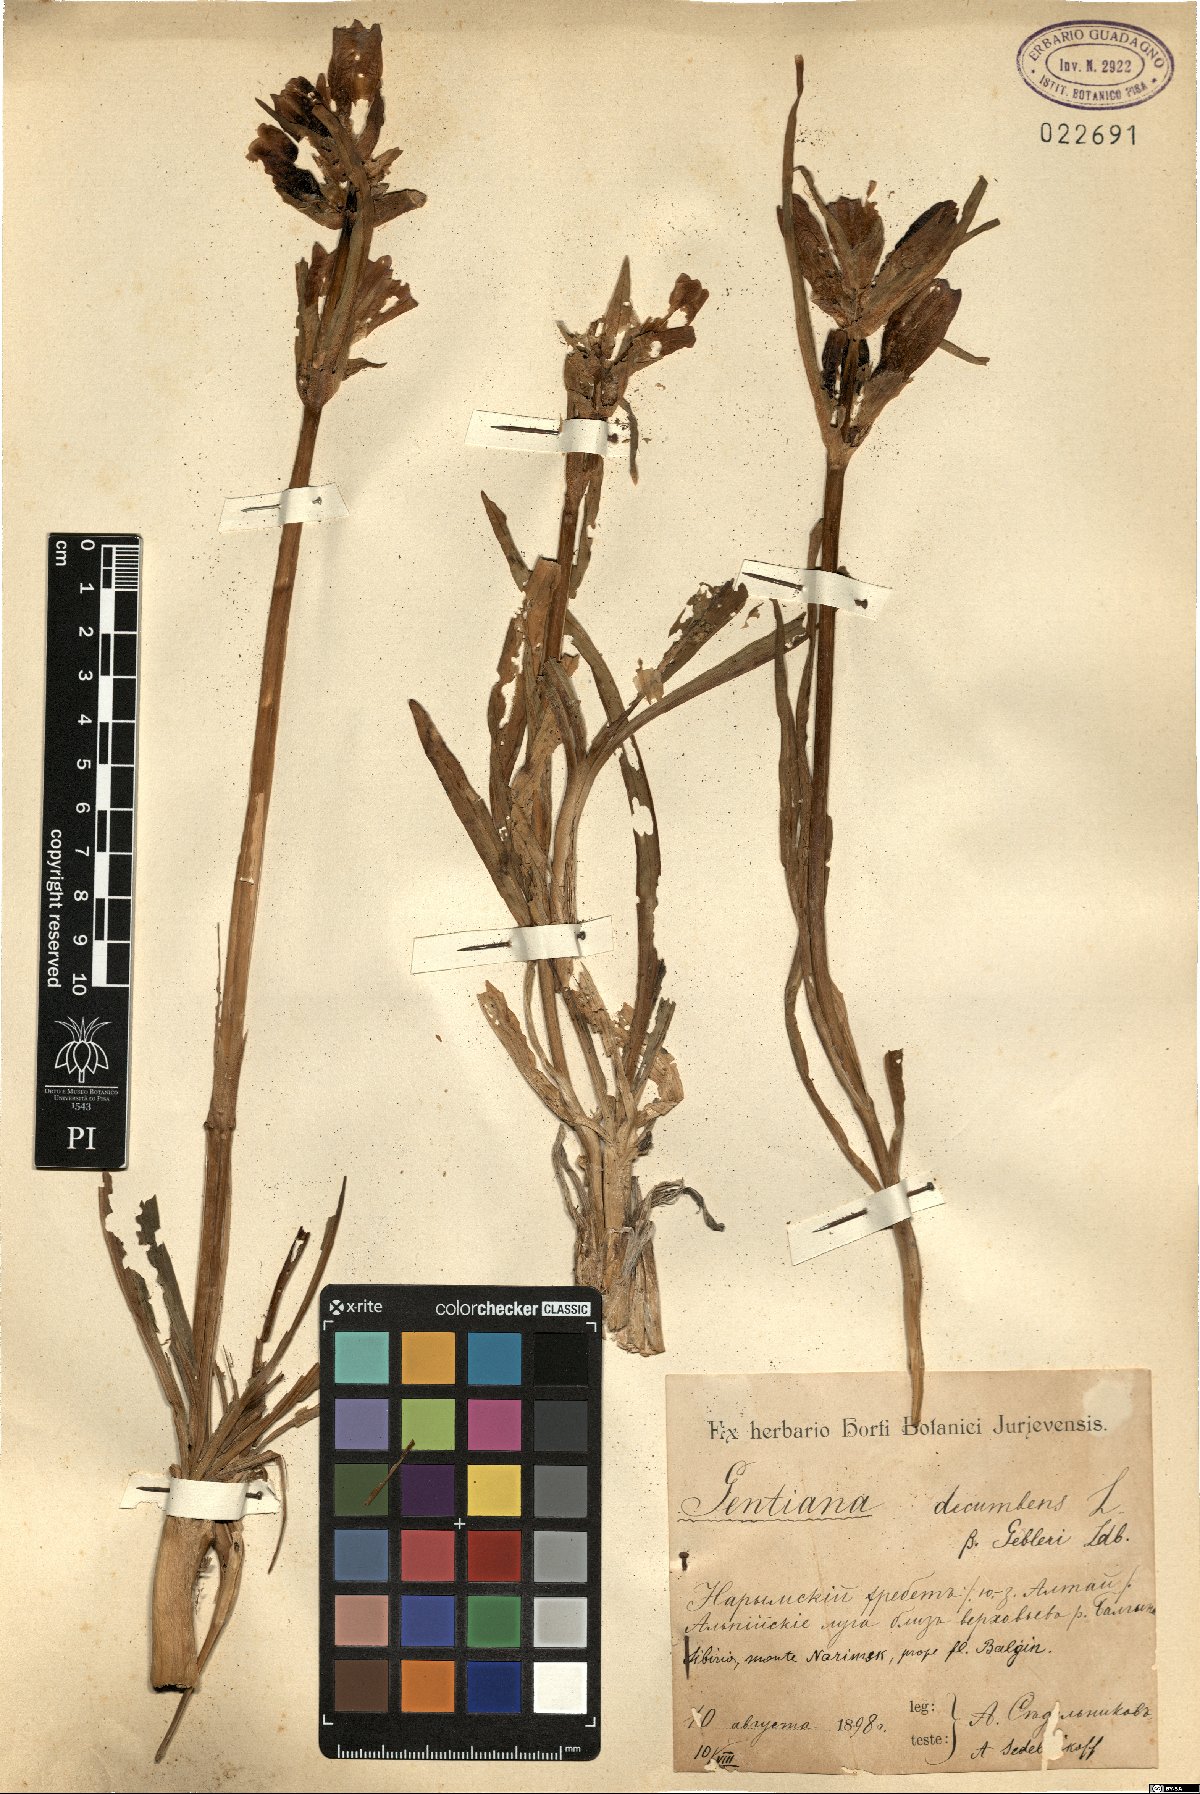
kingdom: Plantae
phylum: Tracheophyta
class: Magnoliopsida
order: Gentianales
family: Gentianaceae
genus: Gentiana
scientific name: Gentiana decumbens
